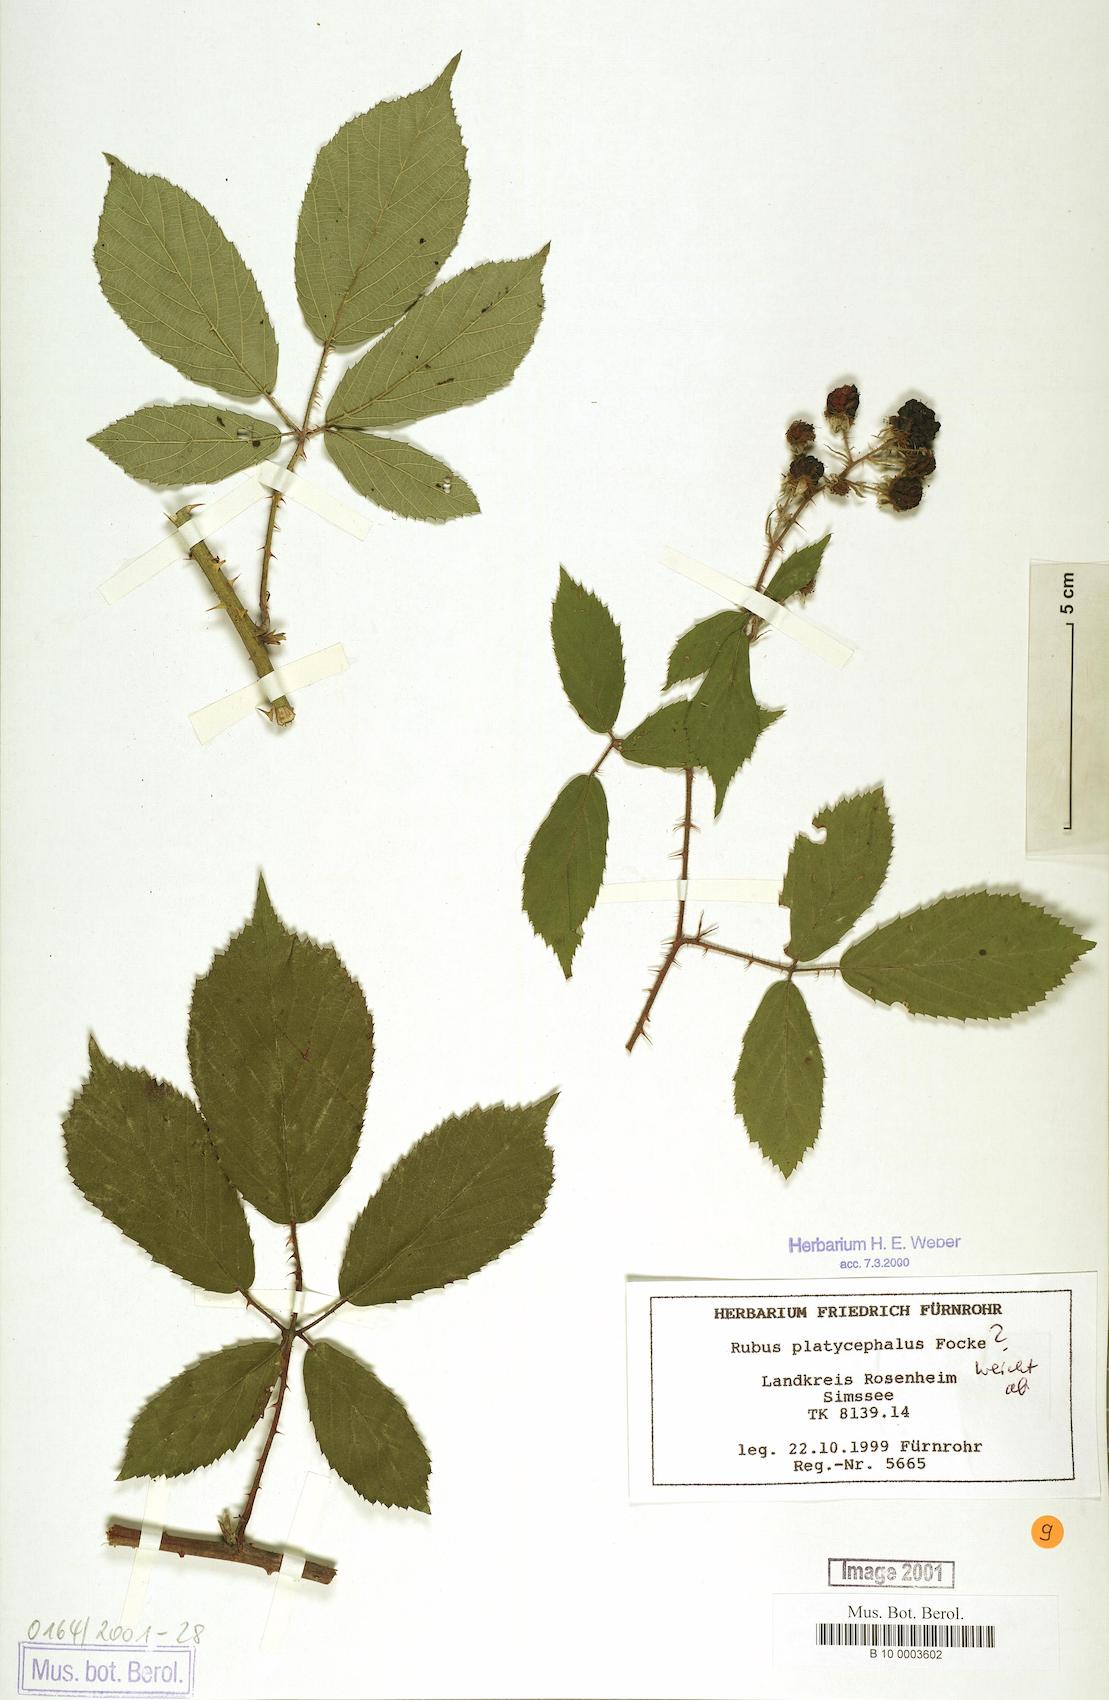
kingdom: Plantae
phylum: Tracheophyta
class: Magnoliopsida
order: Rosales
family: Rosaceae
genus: Rubus
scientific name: Rubus platycephalus
